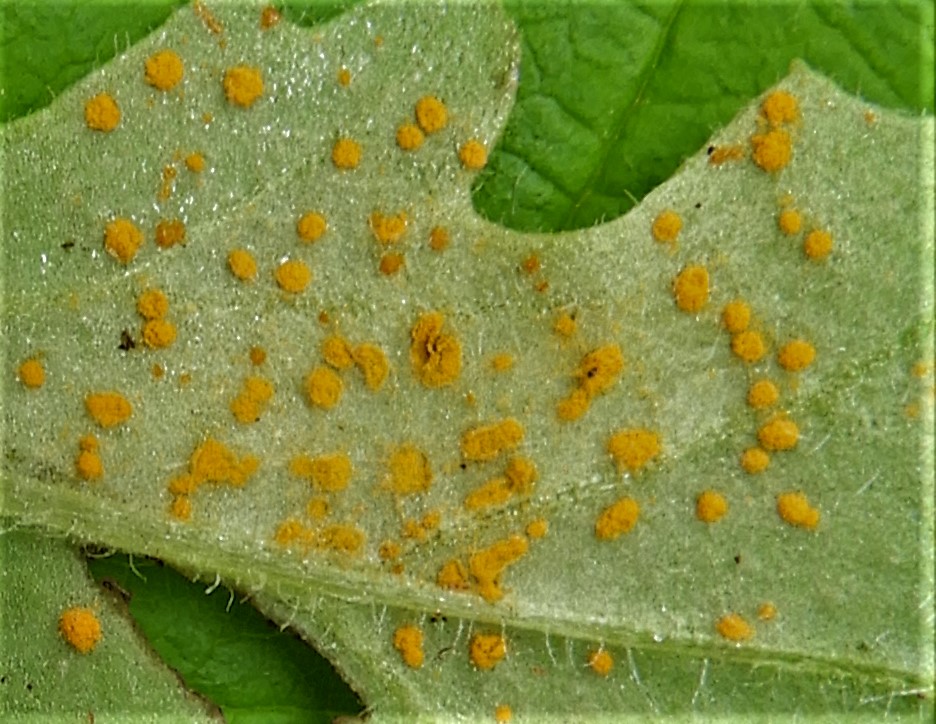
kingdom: Fungi
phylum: Basidiomycota
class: Pucciniomycetes
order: Pucciniales
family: Coleosporiaceae
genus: Coleosporium
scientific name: Coleosporium tussilaginis
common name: almindelig fyrrenålerust
